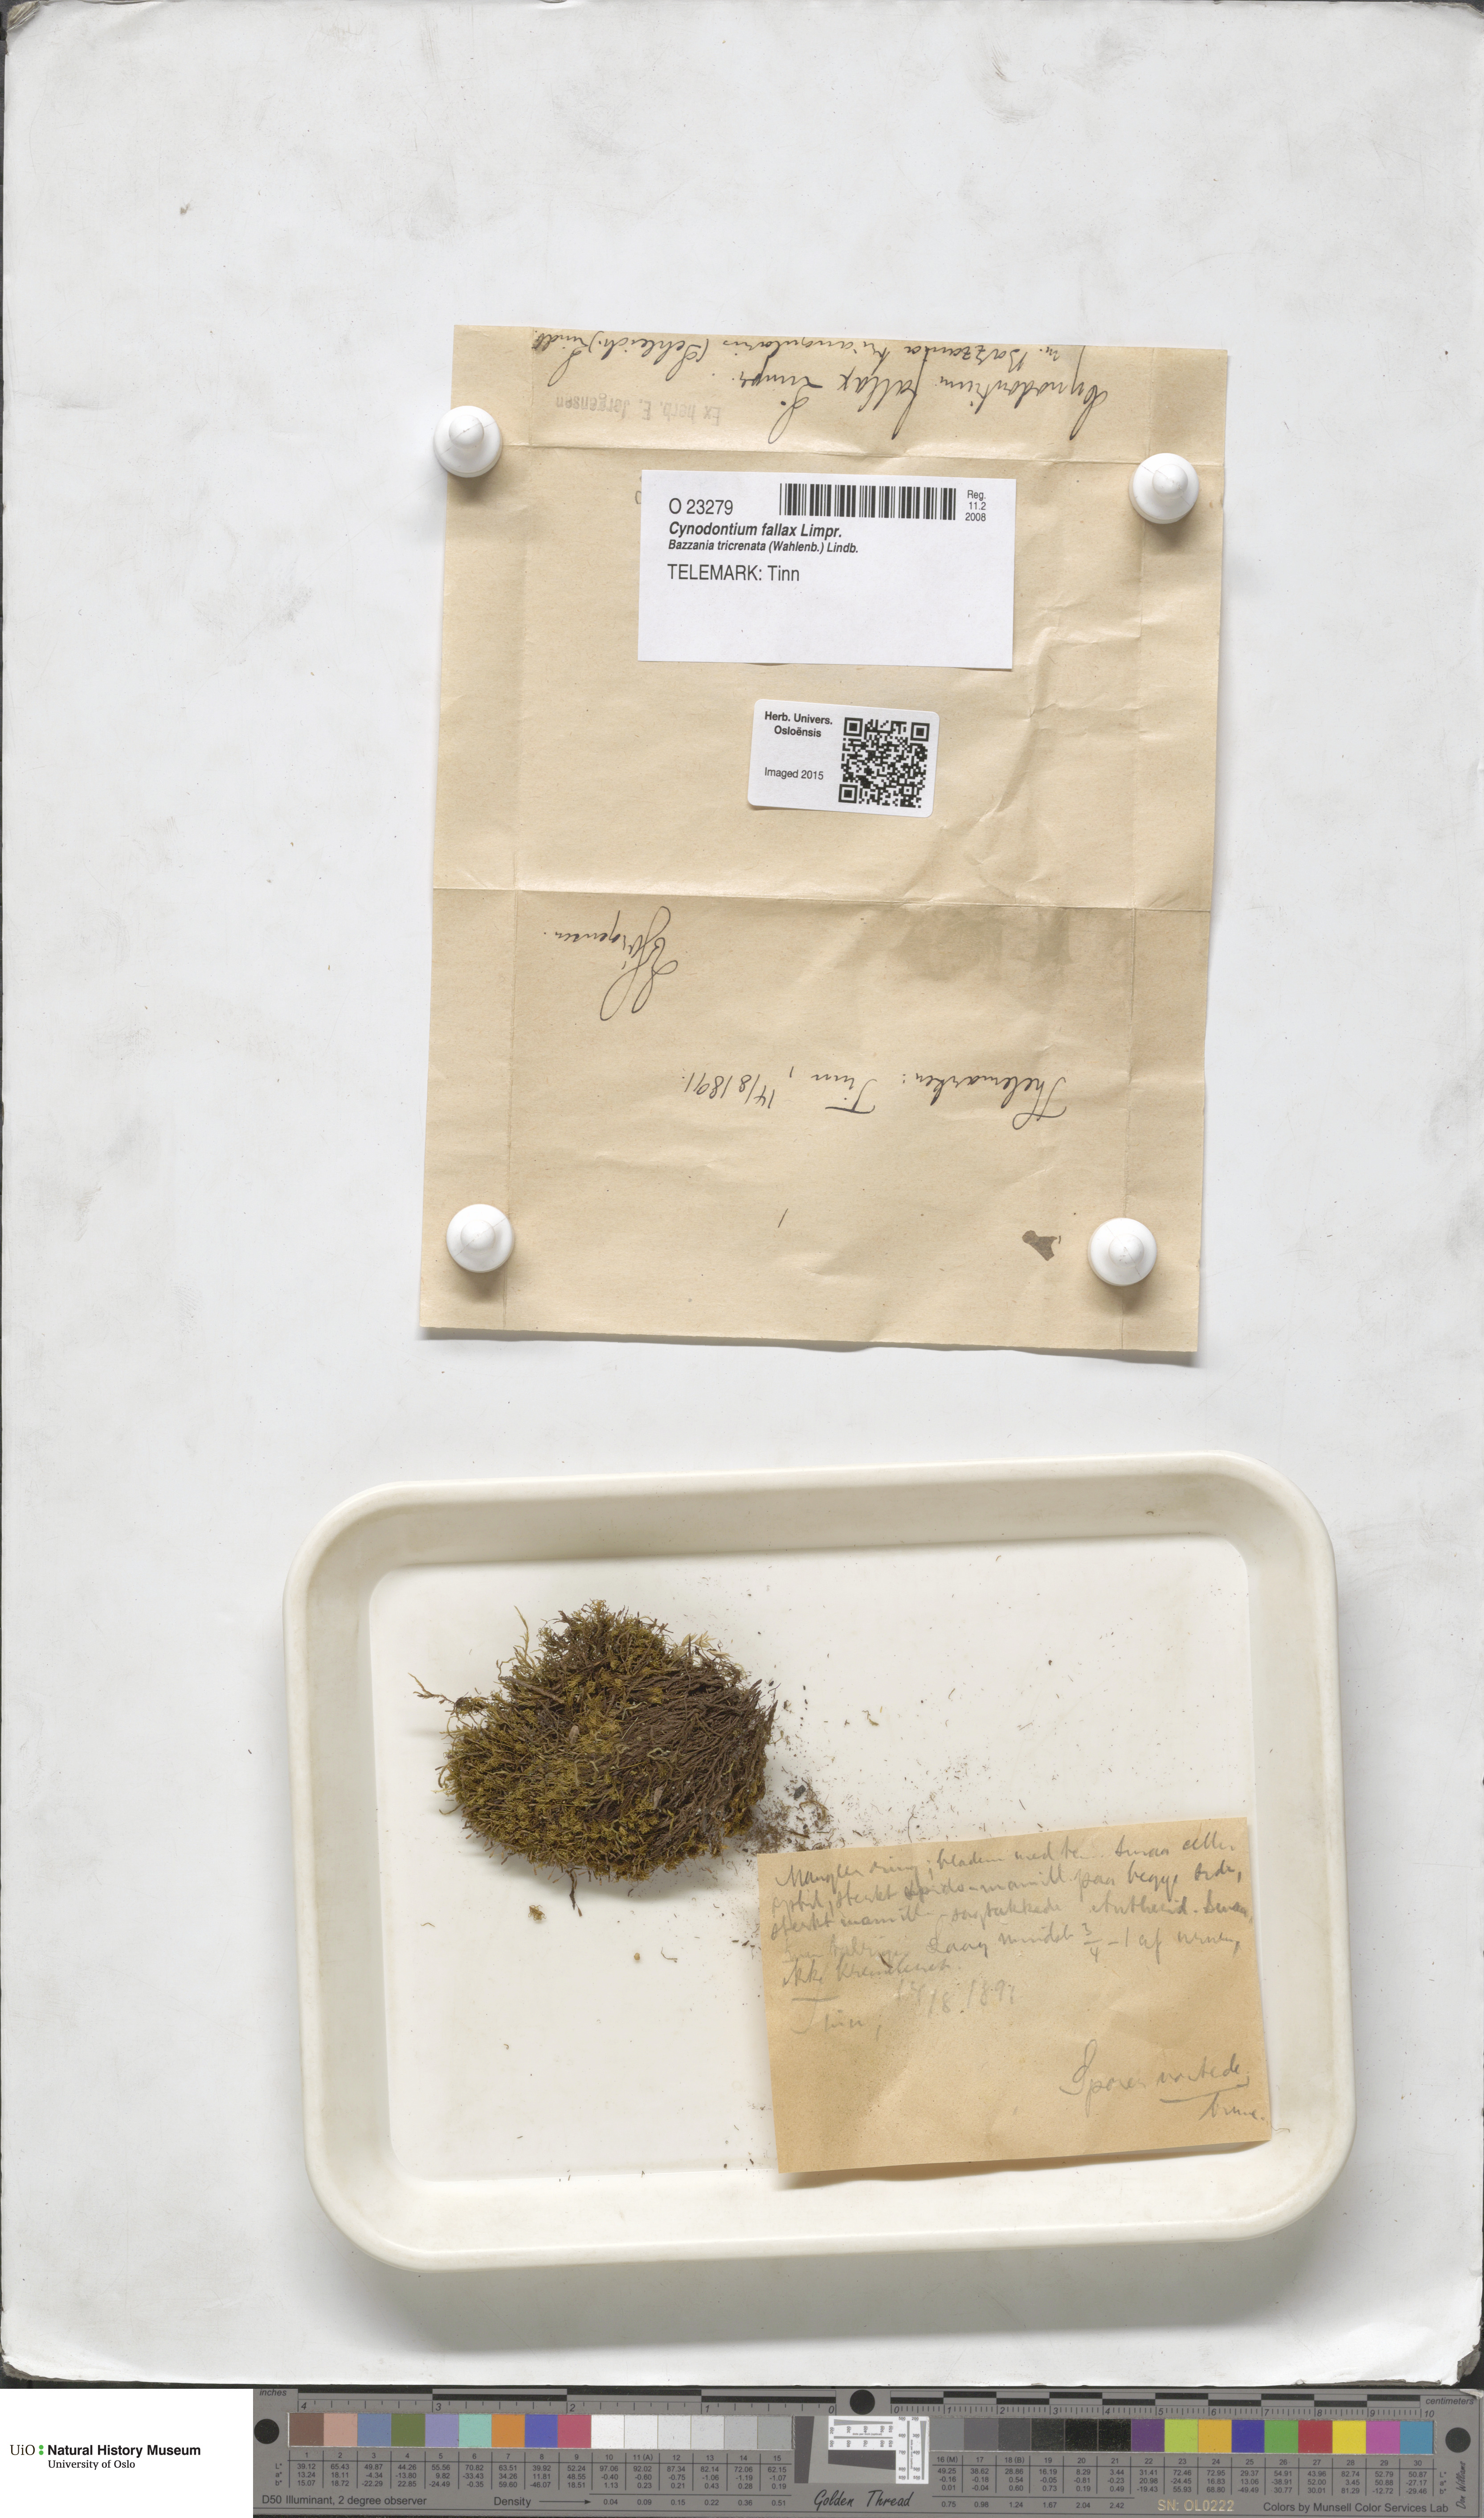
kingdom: Plantae
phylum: Bryophyta
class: Bryopsida
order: Dicranales
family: Rhabdoweisiaceae
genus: Cynodontium
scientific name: Cynodontium fallax
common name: False dog-tooth
